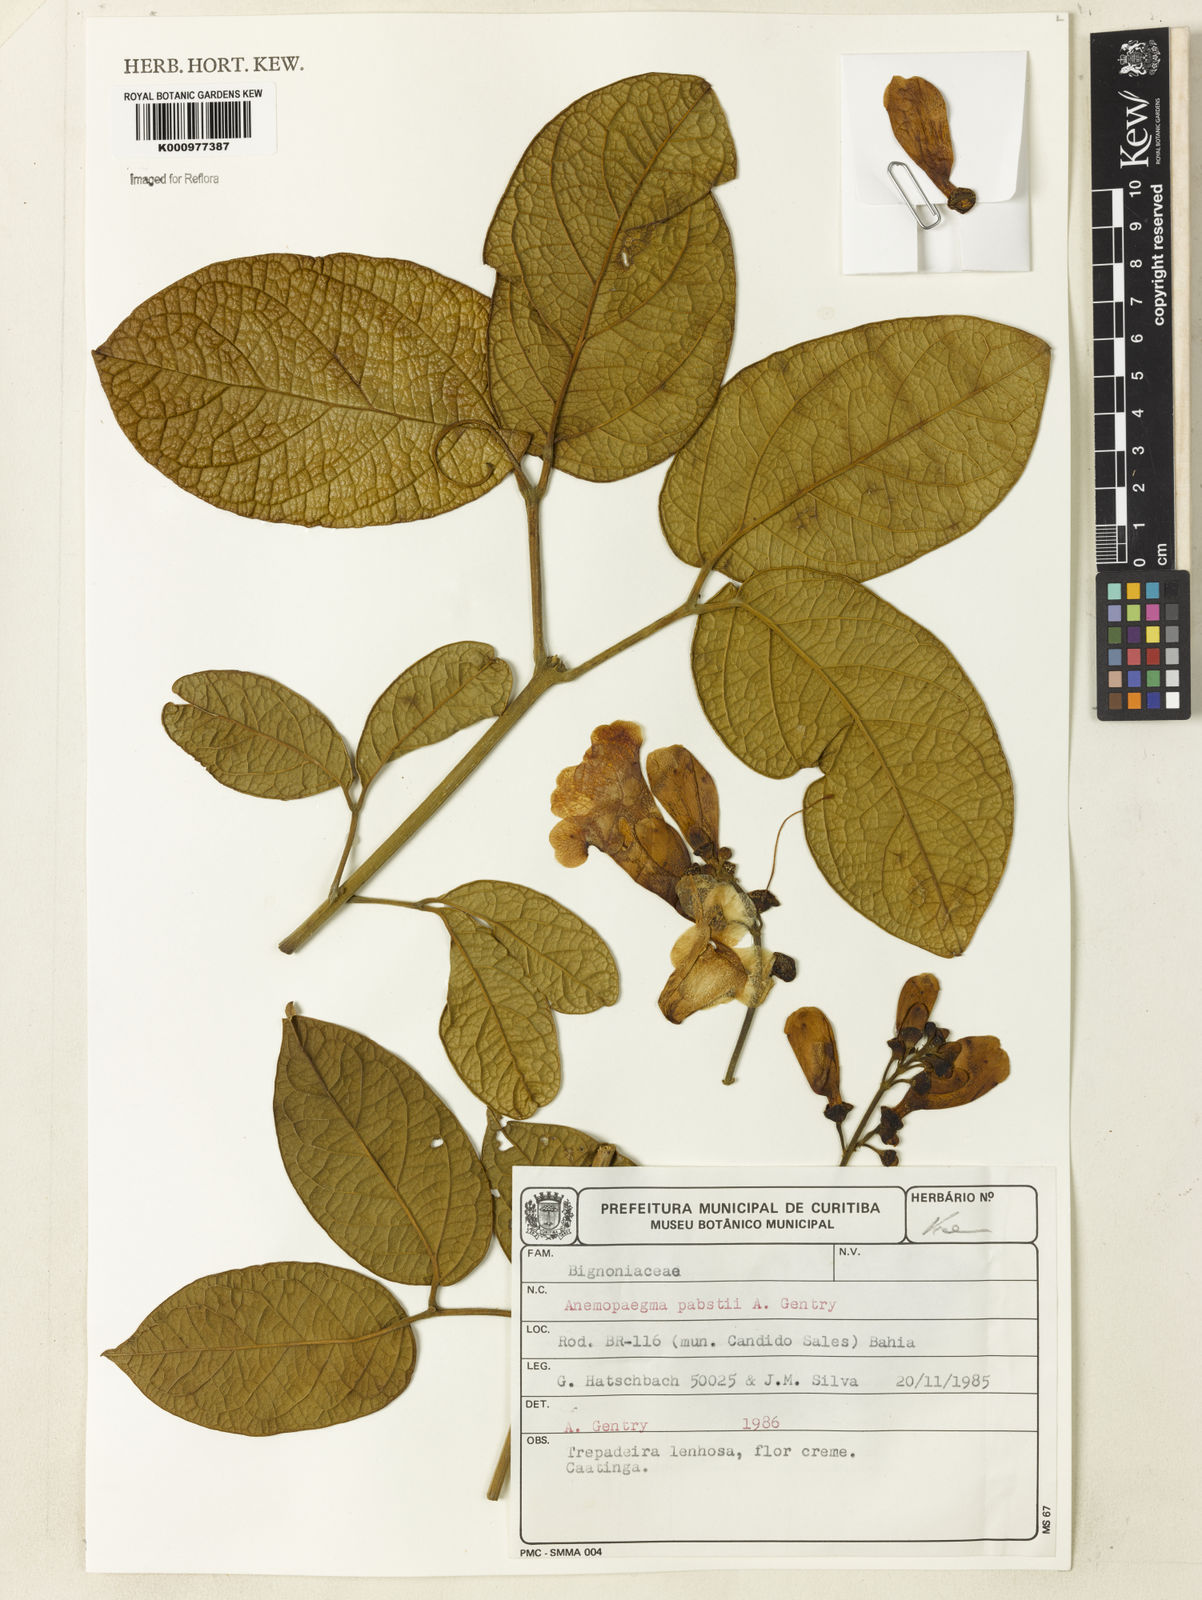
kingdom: Plantae
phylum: Tracheophyta
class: Magnoliopsida
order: Lamiales
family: Bignoniaceae
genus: Anemopaegma
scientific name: Anemopaegma pabstii
